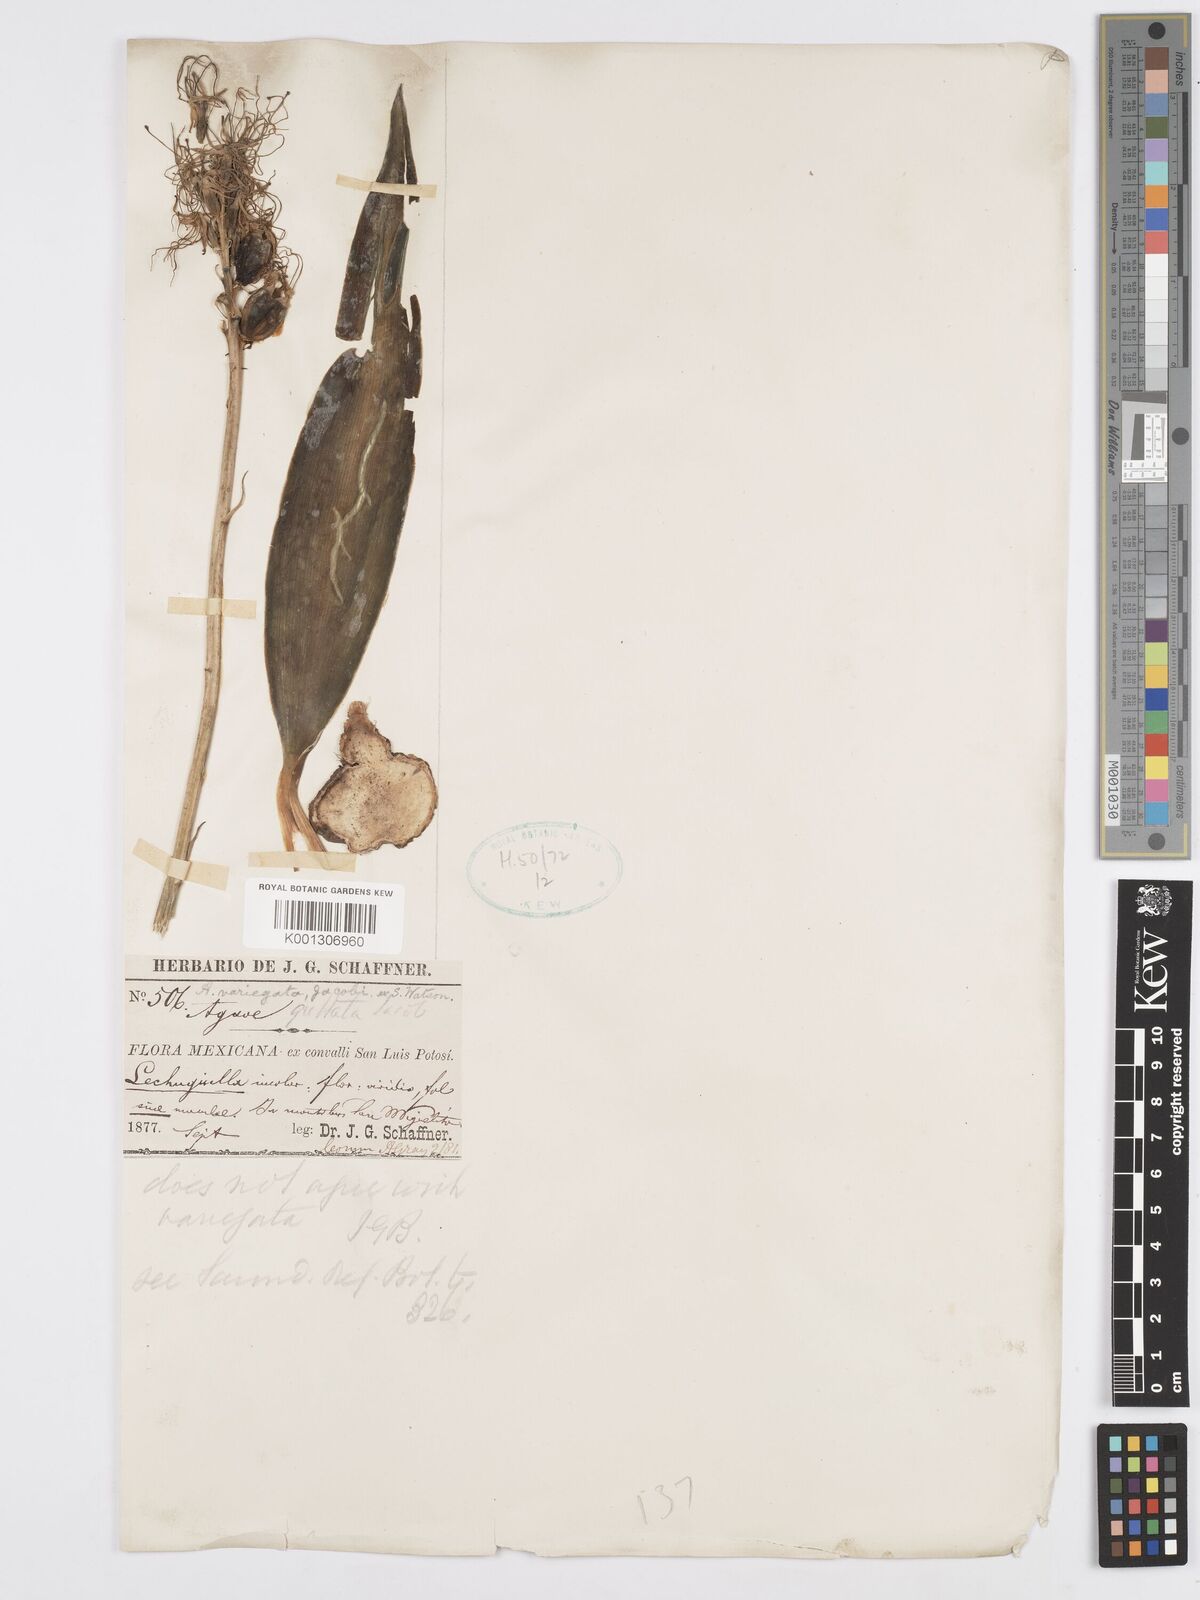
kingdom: Plantae
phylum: Tracheophyta
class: Liliopsida
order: Asparagales
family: Asparagaceae
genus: Agave
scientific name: Agave guttata
